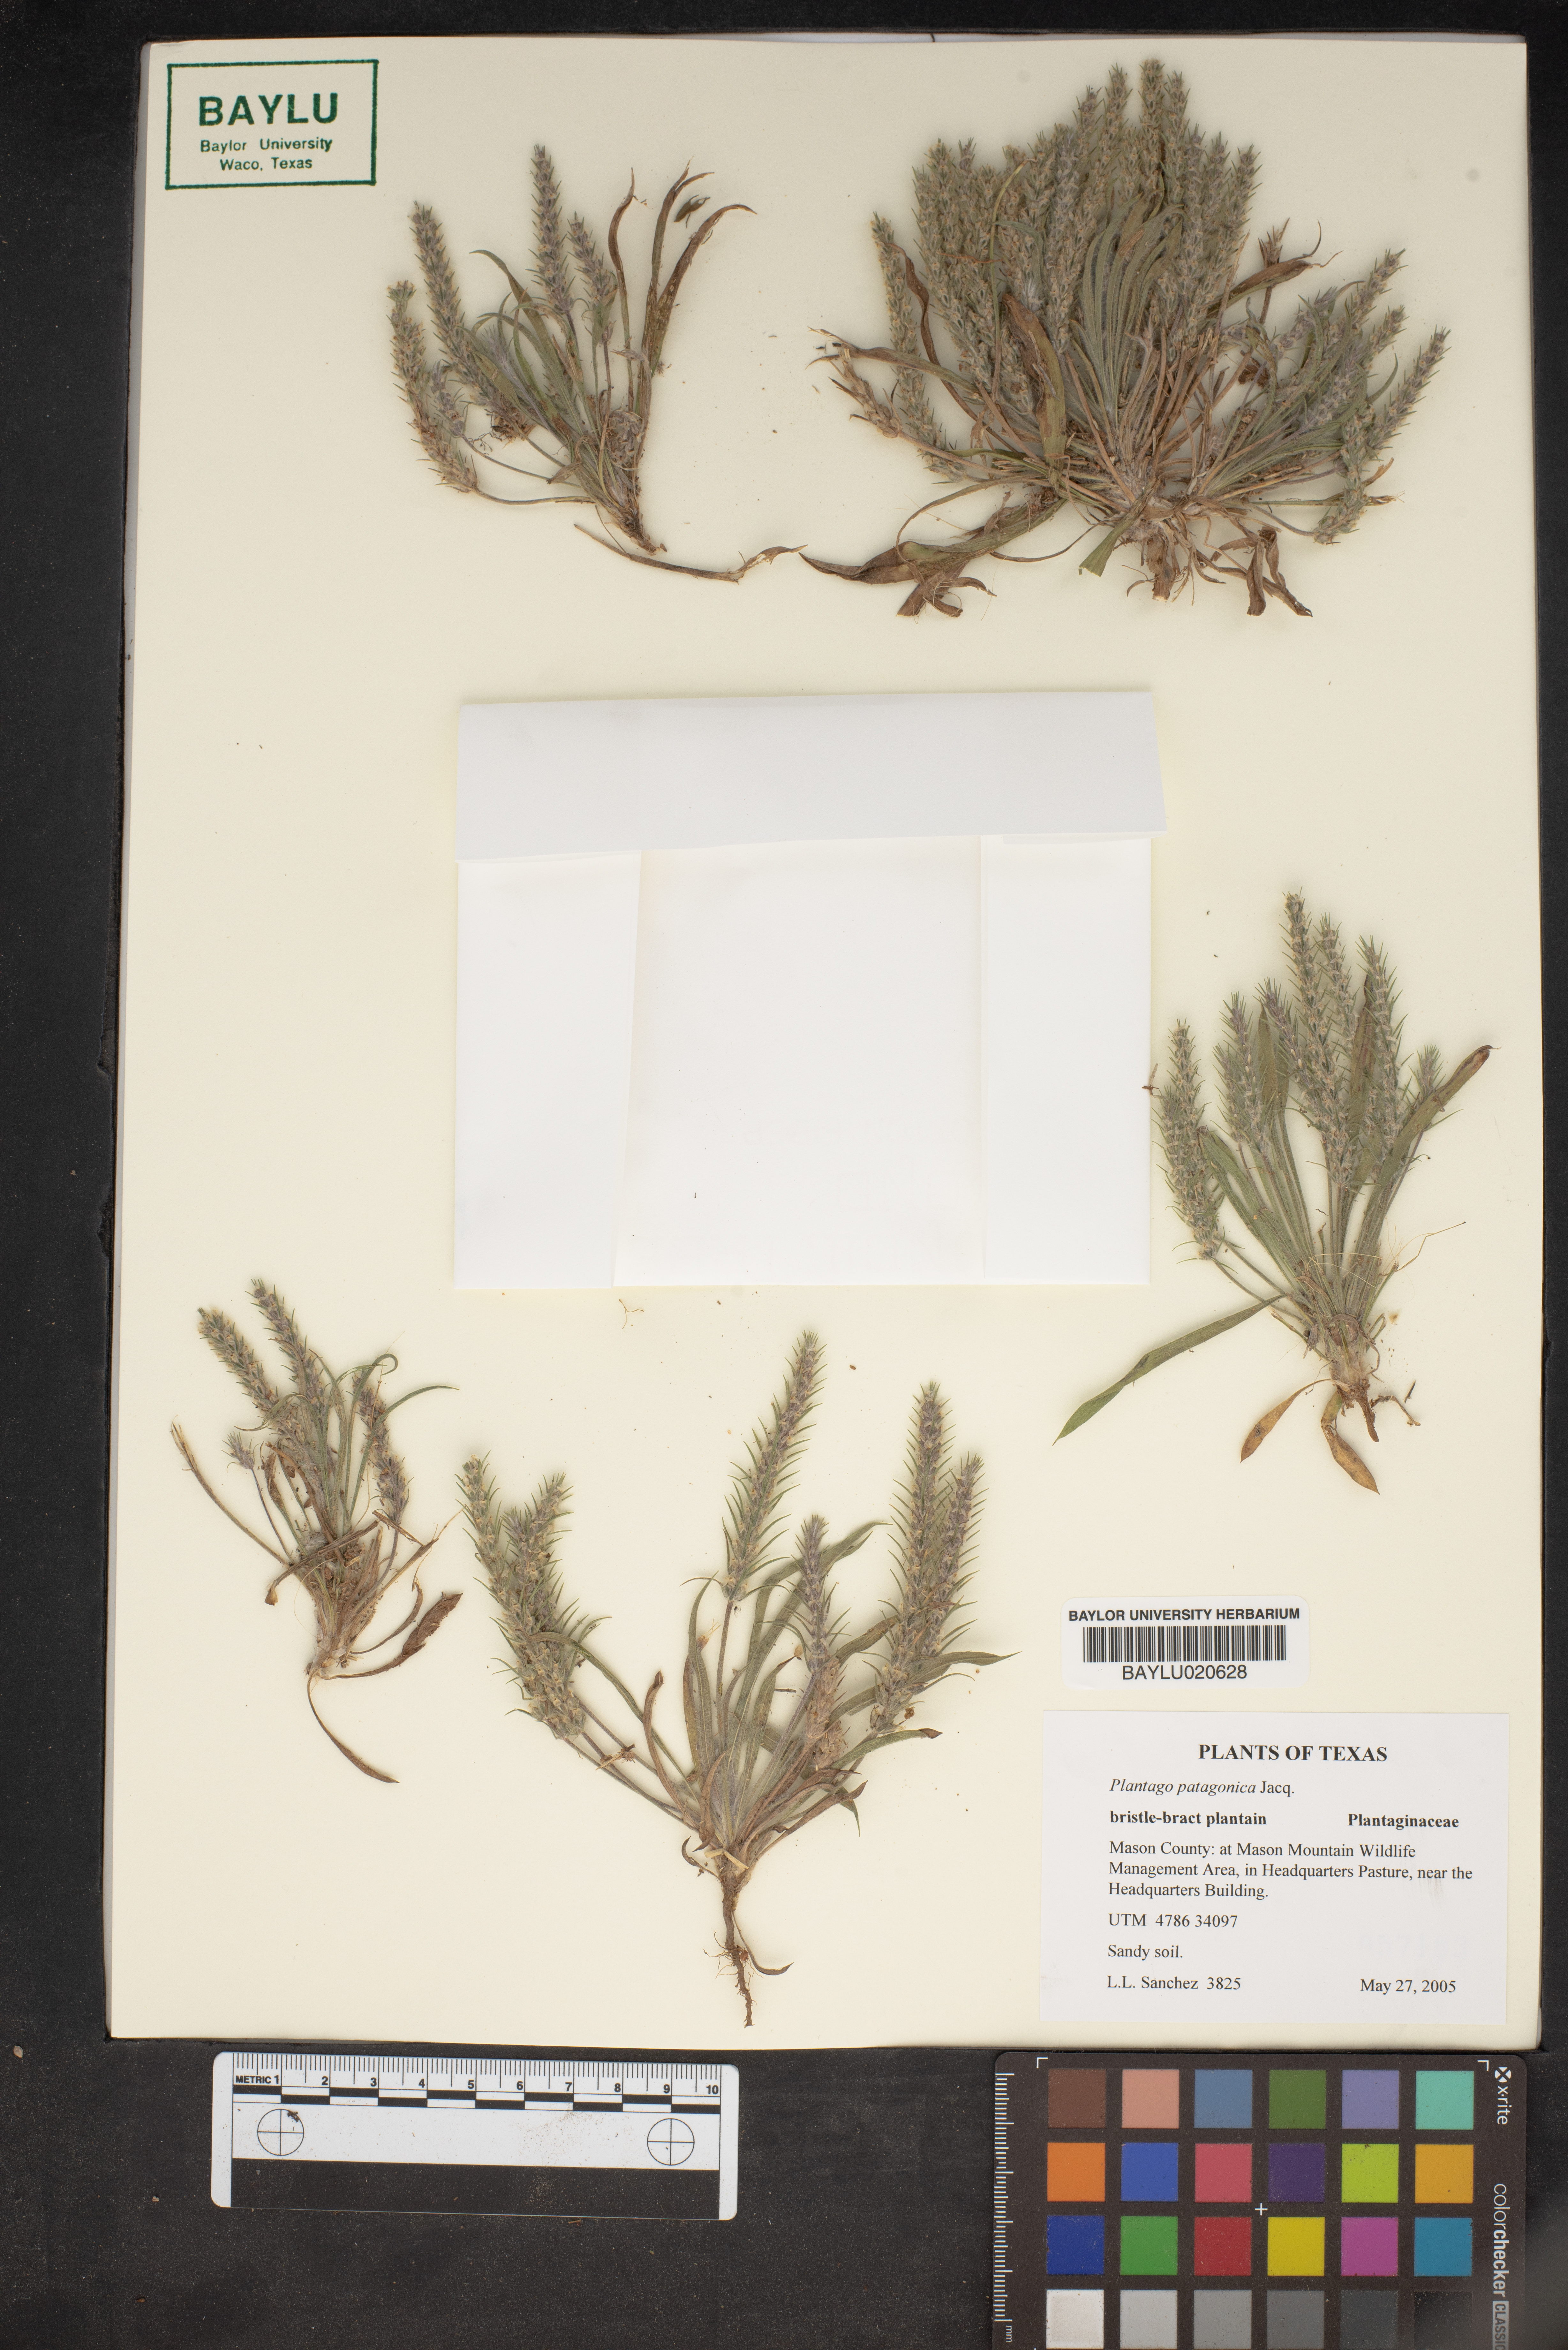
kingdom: Plantae
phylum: Tracheophyta
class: Magnoliopsida
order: Lamiales
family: Plantaginaceae
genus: Plantago
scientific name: Plantago patagonica
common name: Patagonia indian-wheat
